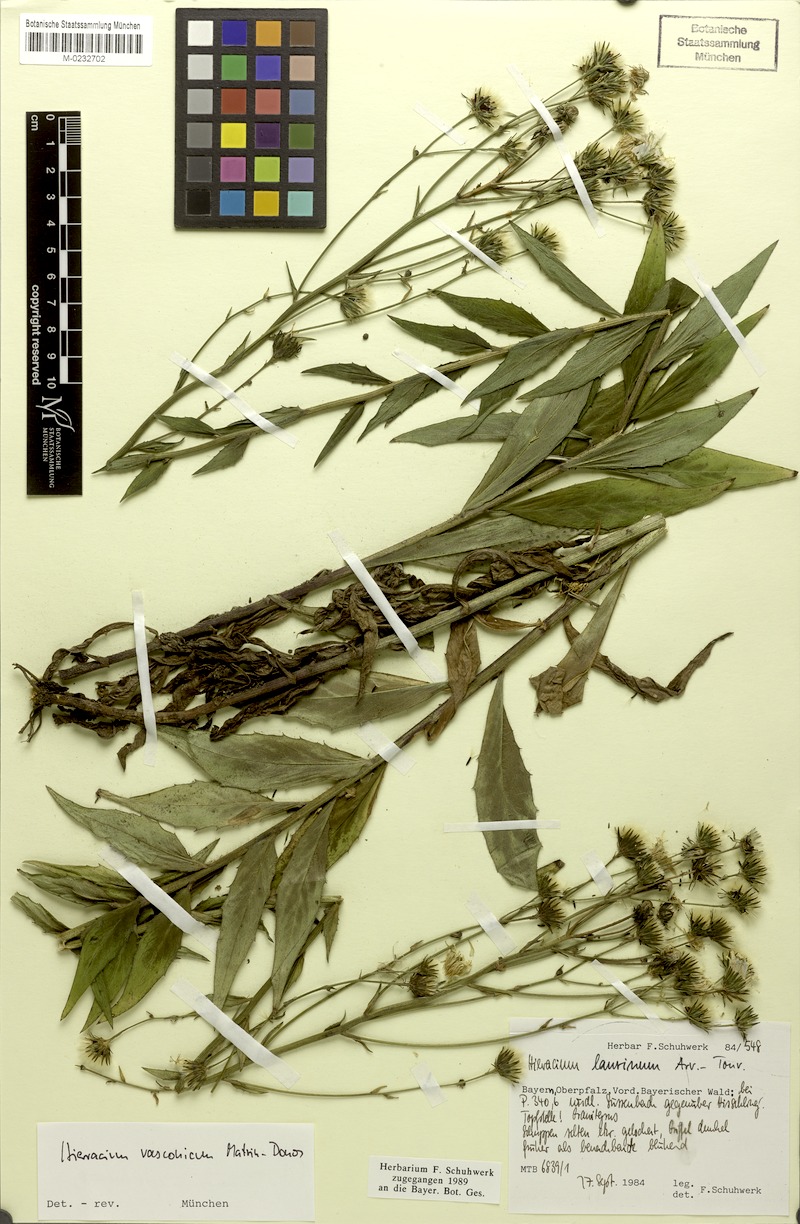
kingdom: Plantae
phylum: Tracheophyta
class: Magnoliopsida
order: Asterales
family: Asteraceae
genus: Hieracium
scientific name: Hieracium vasconicum
